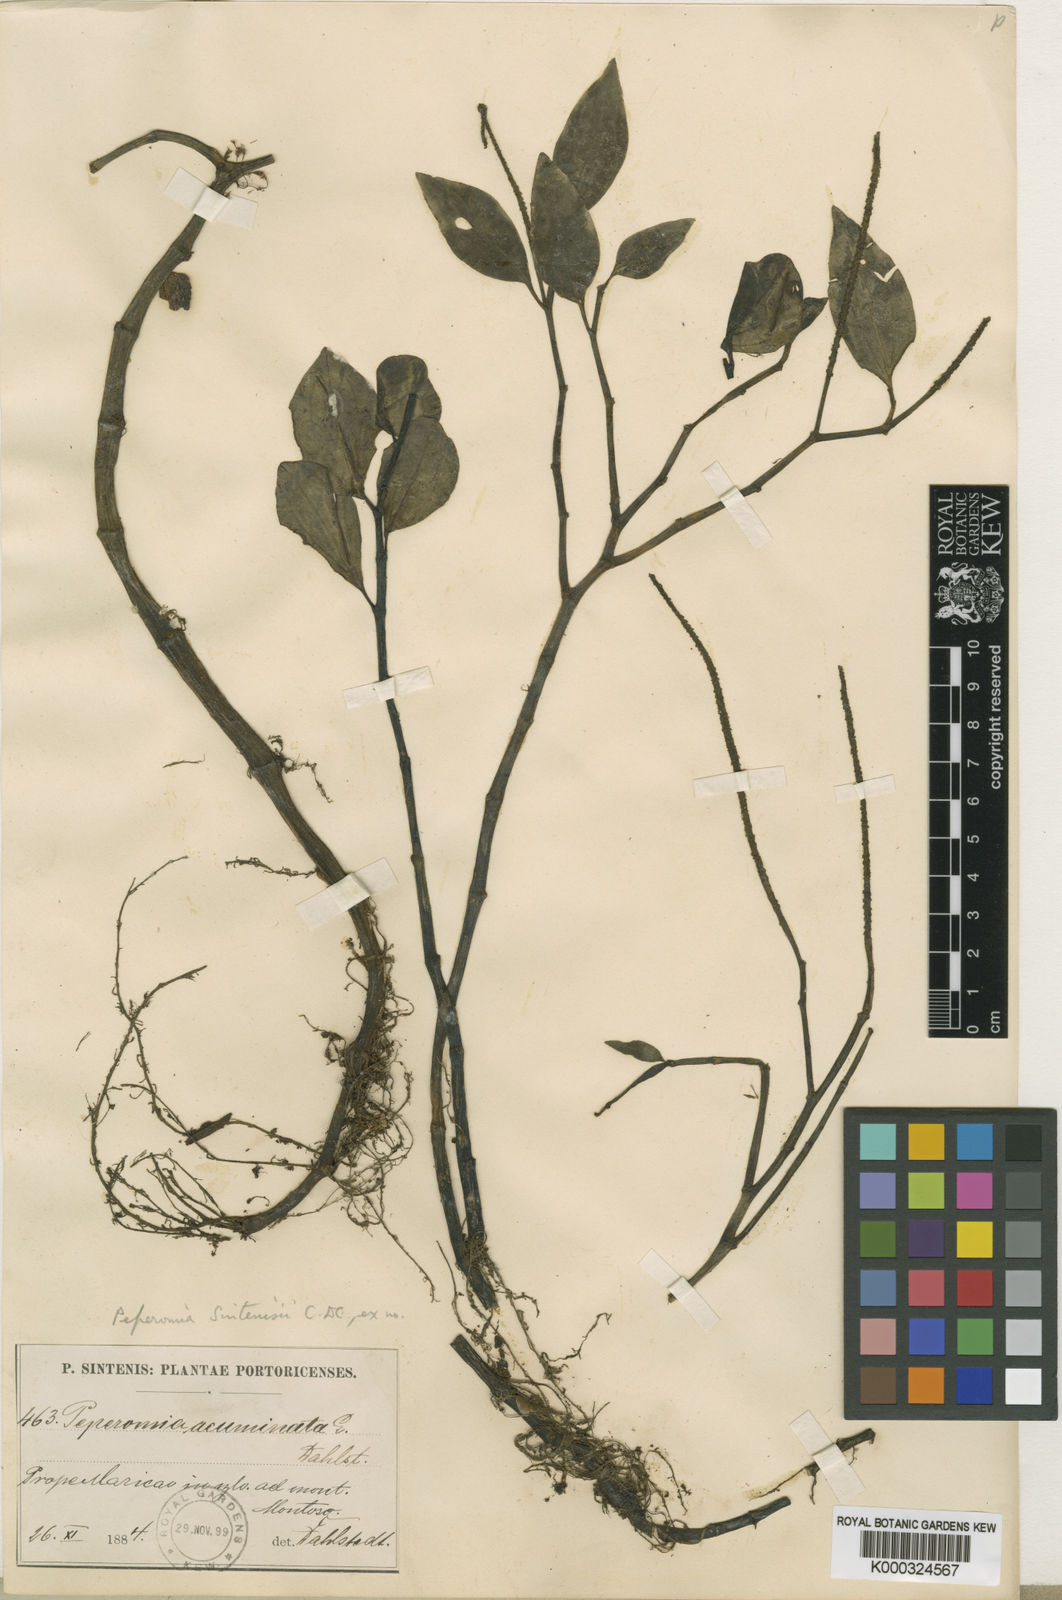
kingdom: Plantae
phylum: Tracheophyta
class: Magnoliopsida
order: Piperales
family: Piperaceae
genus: Peperomia
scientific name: Peperomia glabella
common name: Cypress peperomia
